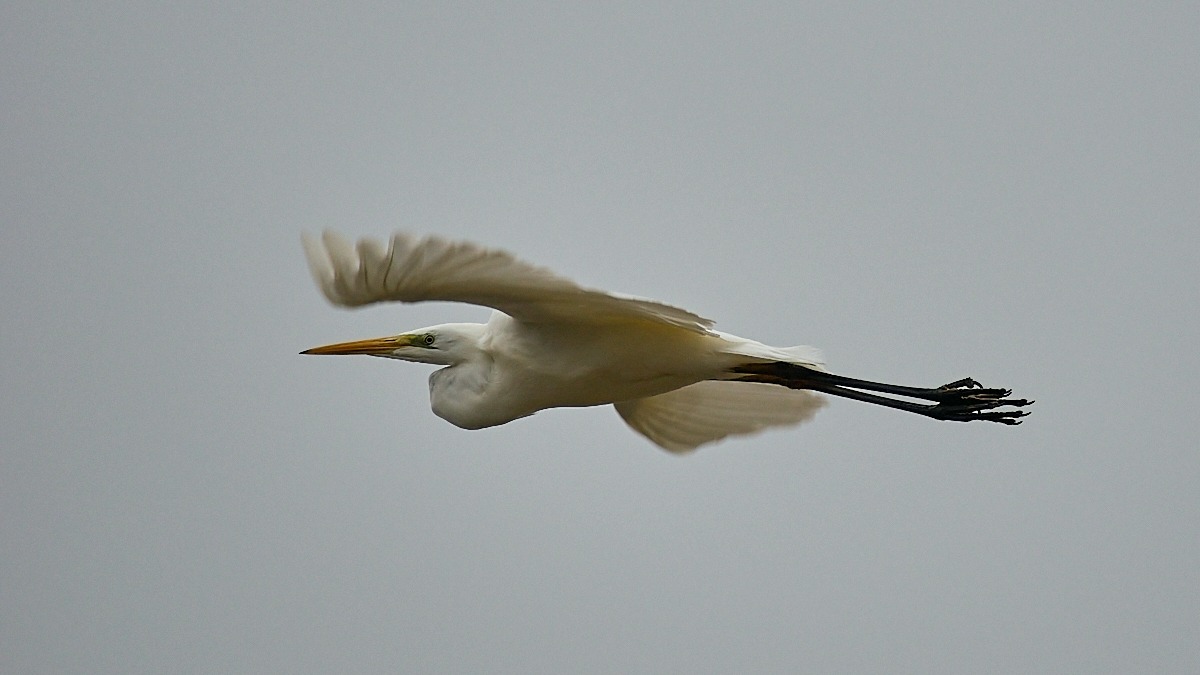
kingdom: Animalia
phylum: Chordata
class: Aves
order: Pelecaniformes
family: Ardeidae
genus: Ardea
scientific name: Ardea alba
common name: Sølvhejre
